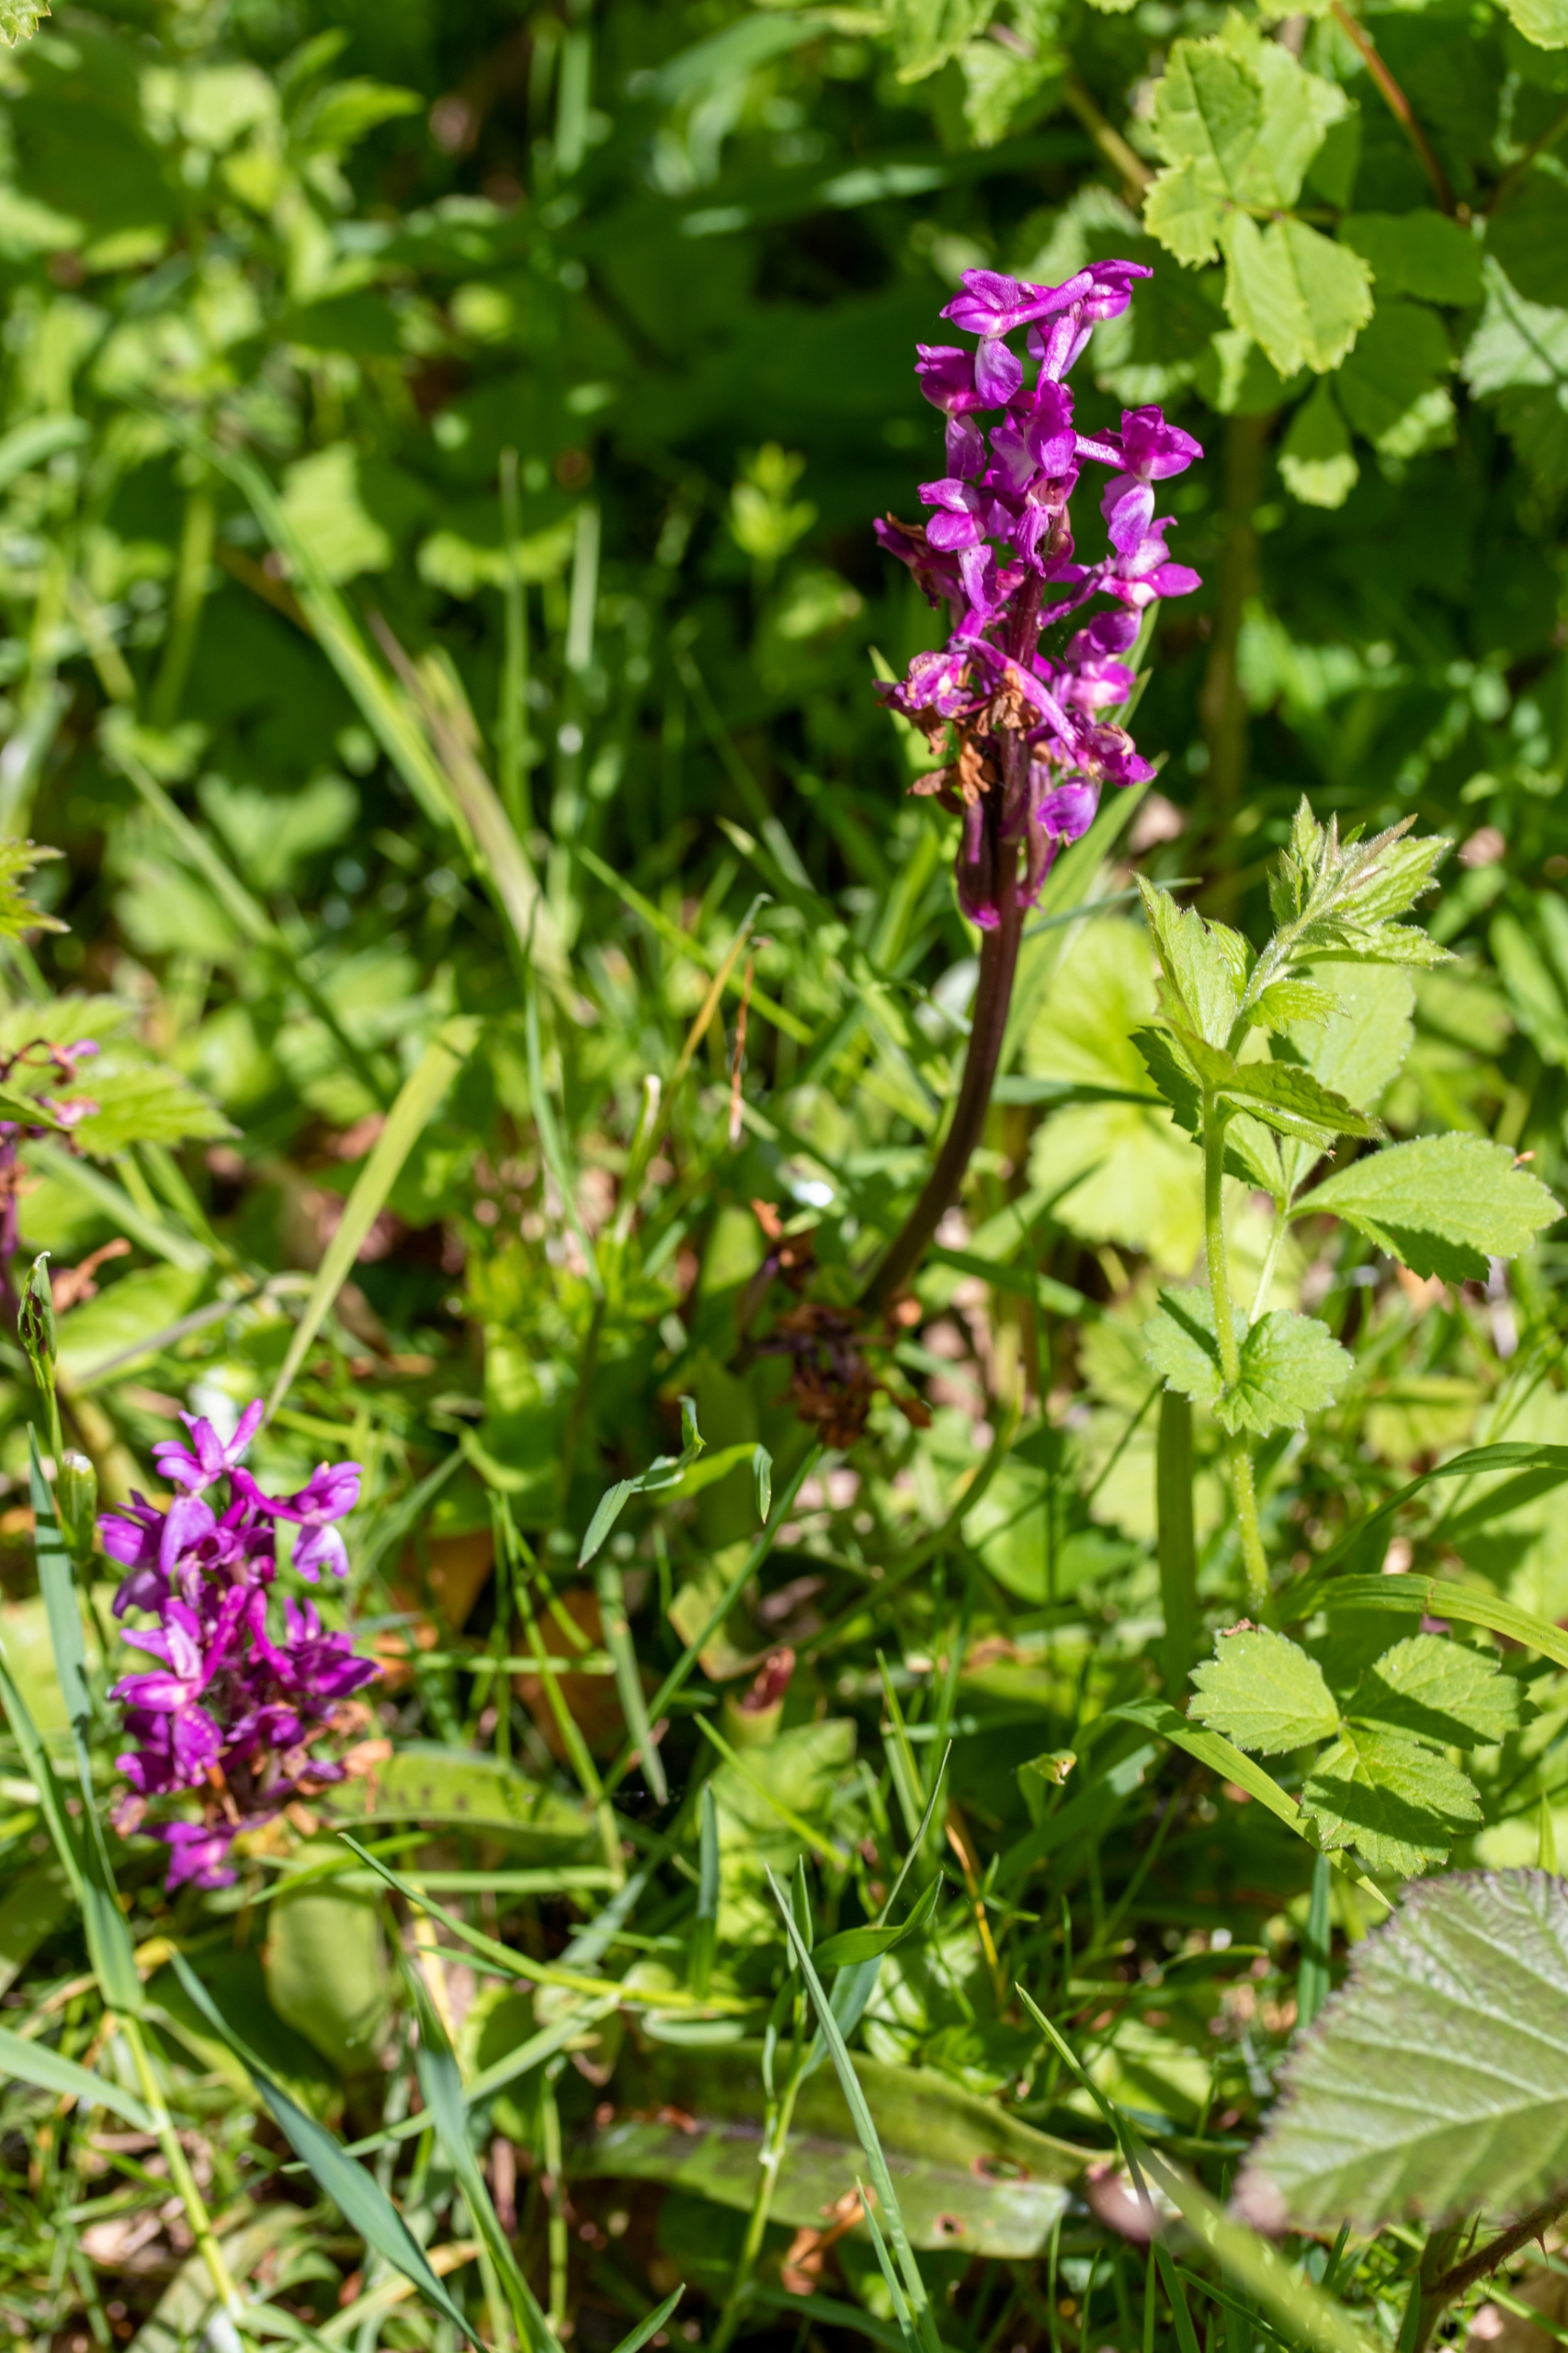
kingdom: Plantae
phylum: Tracheophyta
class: Liliopsida
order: Asparagales
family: Orchidaceae
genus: Orchis
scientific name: Orchis mascula
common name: Tyndakset gøgeurt
